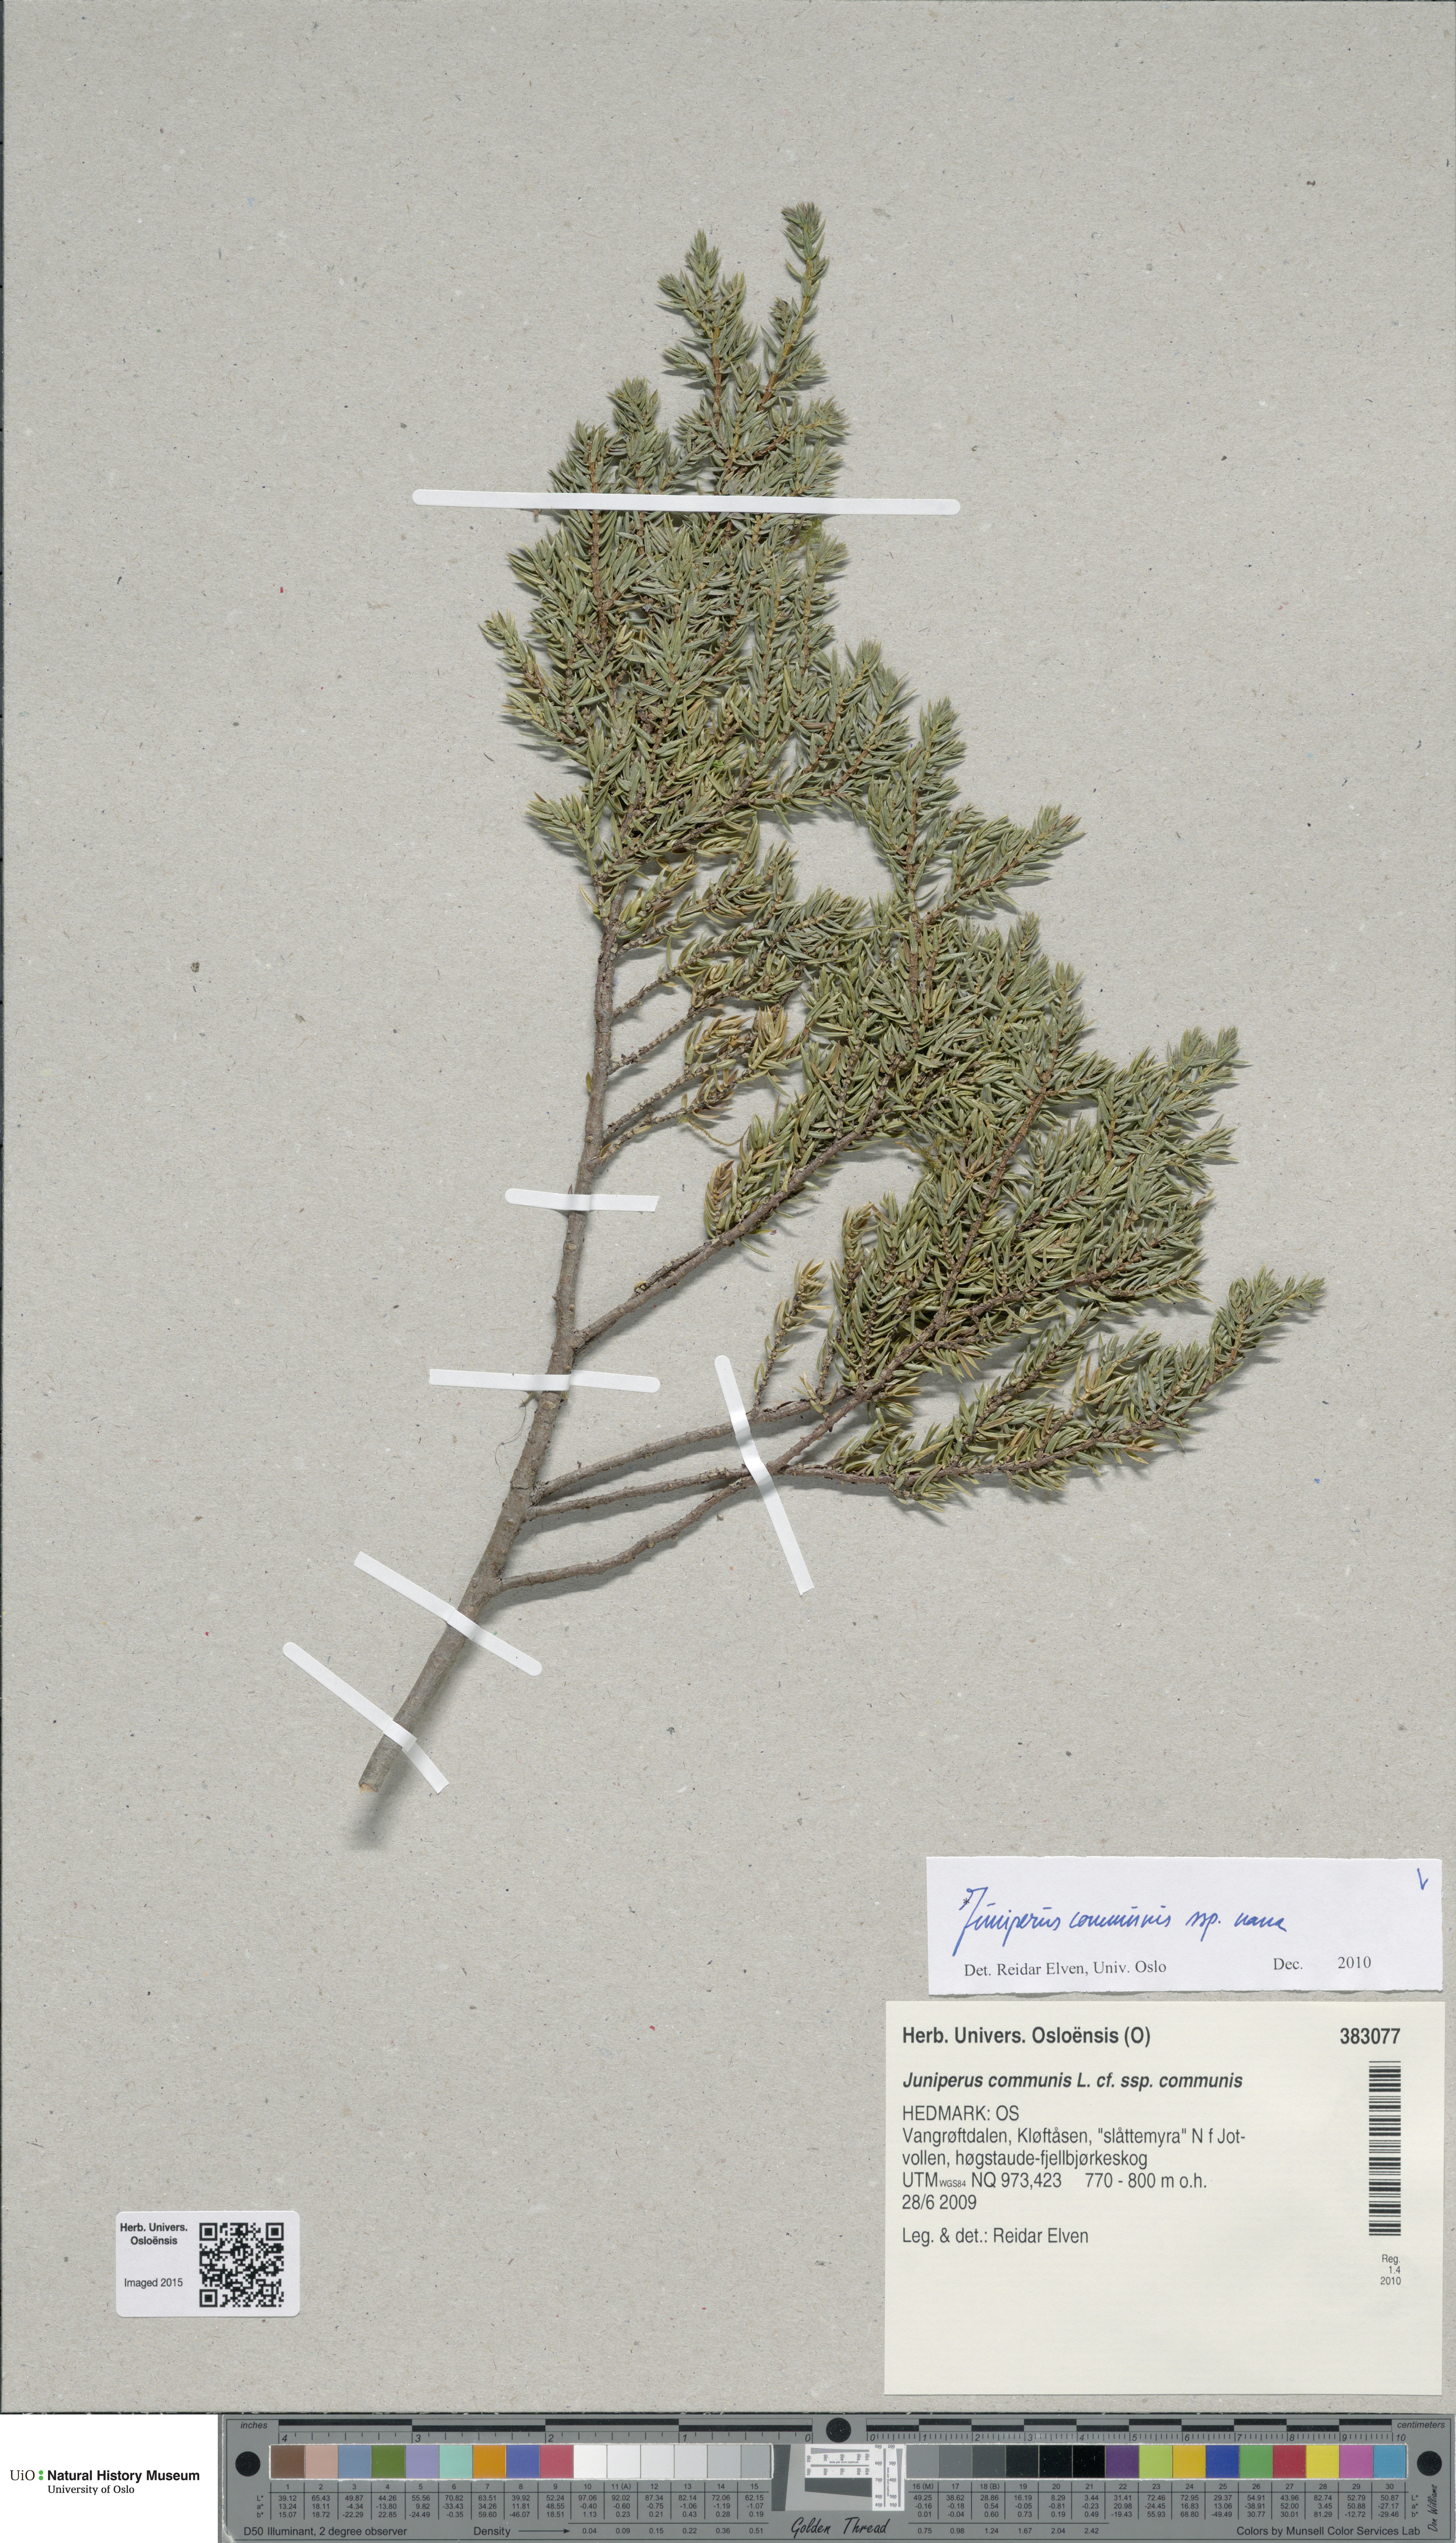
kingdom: Plantae
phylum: Tracheophyta
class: Pinopsida
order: Pinales
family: Cupressaceae
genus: Juniperus
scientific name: Juniperus communis
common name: Common juniper
